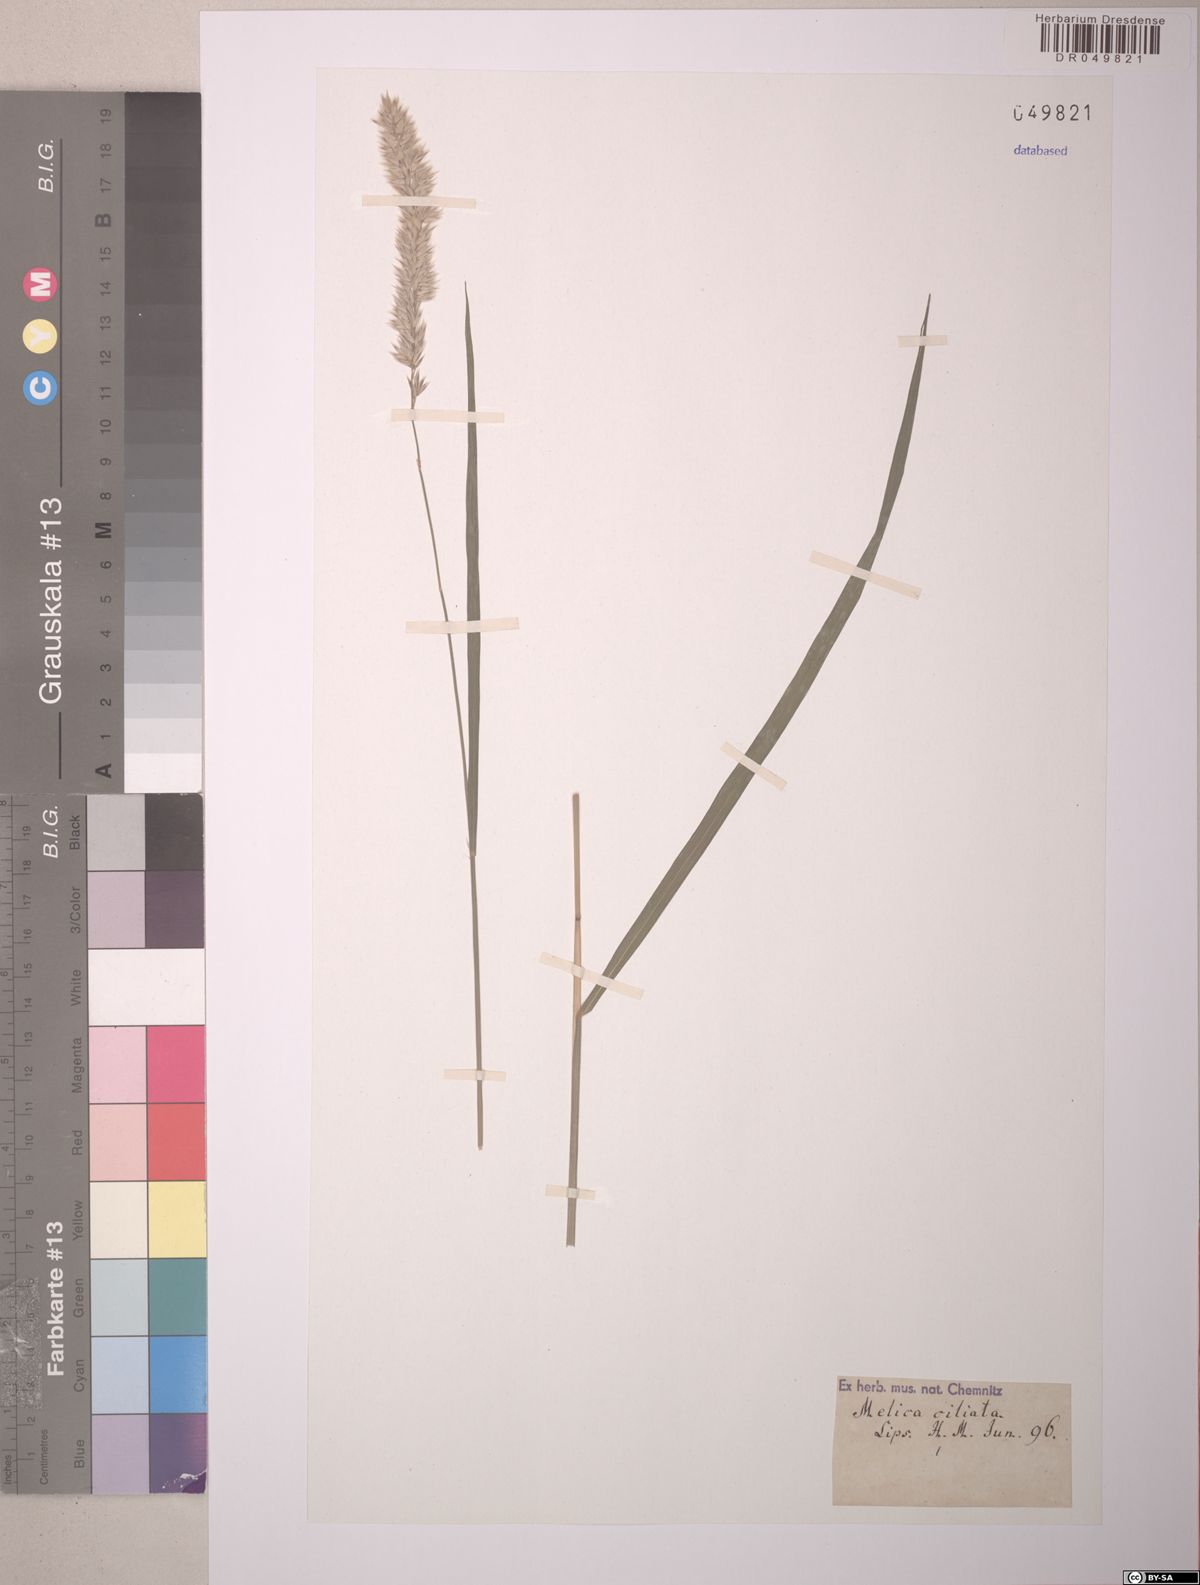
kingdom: Plantae
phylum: Tracheophyta
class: Liliopsida
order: Poales
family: Poaceae
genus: Melica
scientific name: Melica ciliata
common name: Hairy melicgrass
